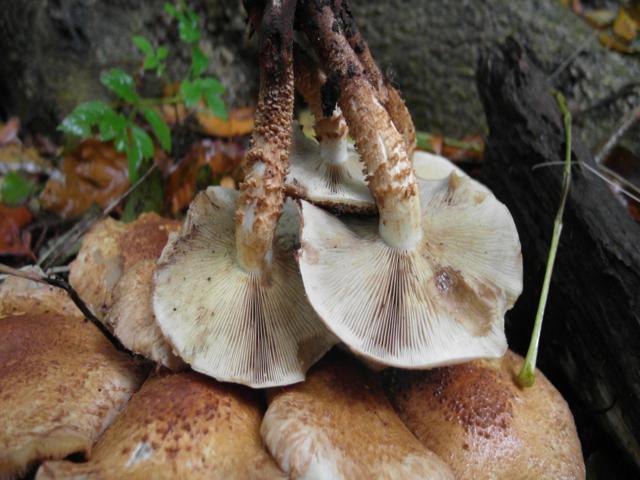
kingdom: Fungi
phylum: Basidiomycota
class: Agaricomycetes
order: Agaricales
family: Strophariaceae
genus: Pholiota
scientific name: Pholiota squarrosa
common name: krumskællet skælhat
